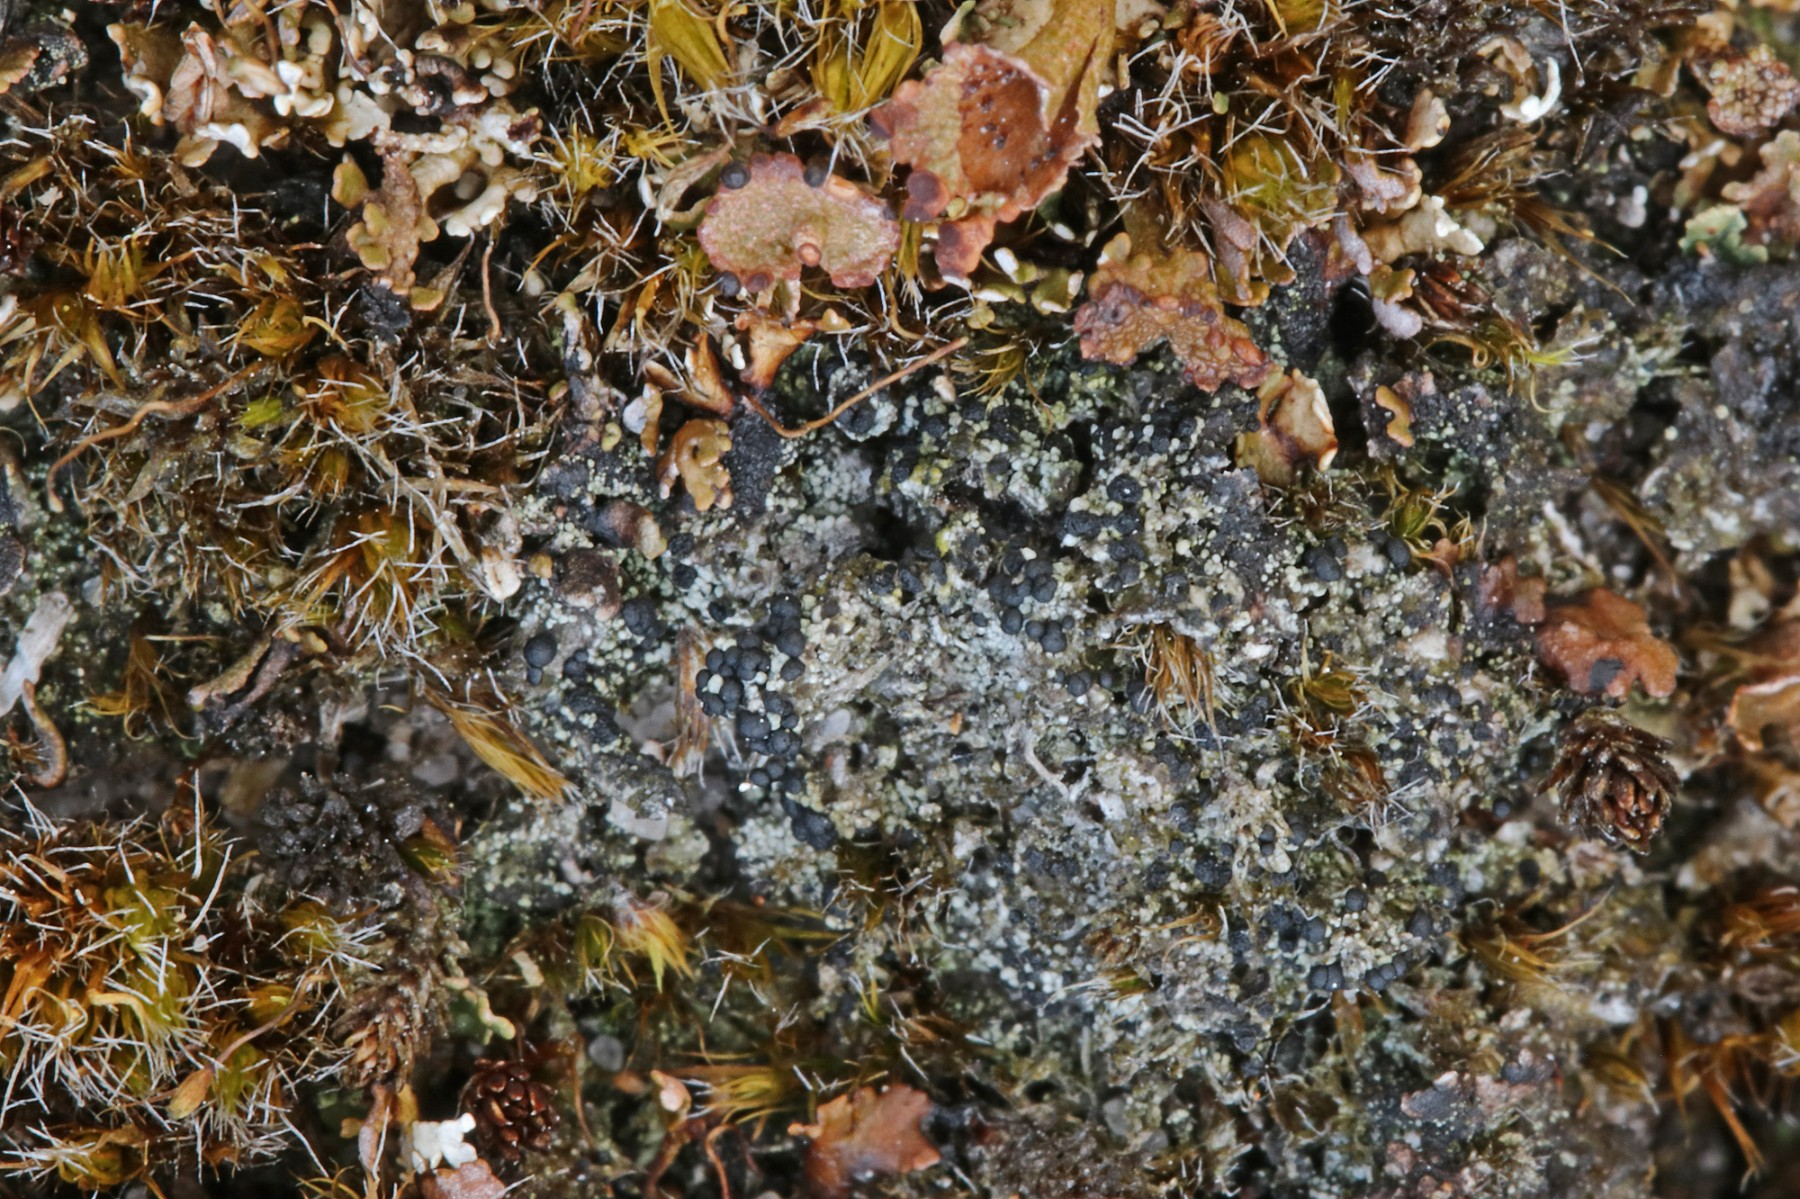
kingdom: Fungi
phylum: Ascomycota
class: Lecanoromycetes
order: Lecanorales
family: Byssolomataceae
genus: Micarea
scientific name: Micarea lignaria
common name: tørve-knaplav
